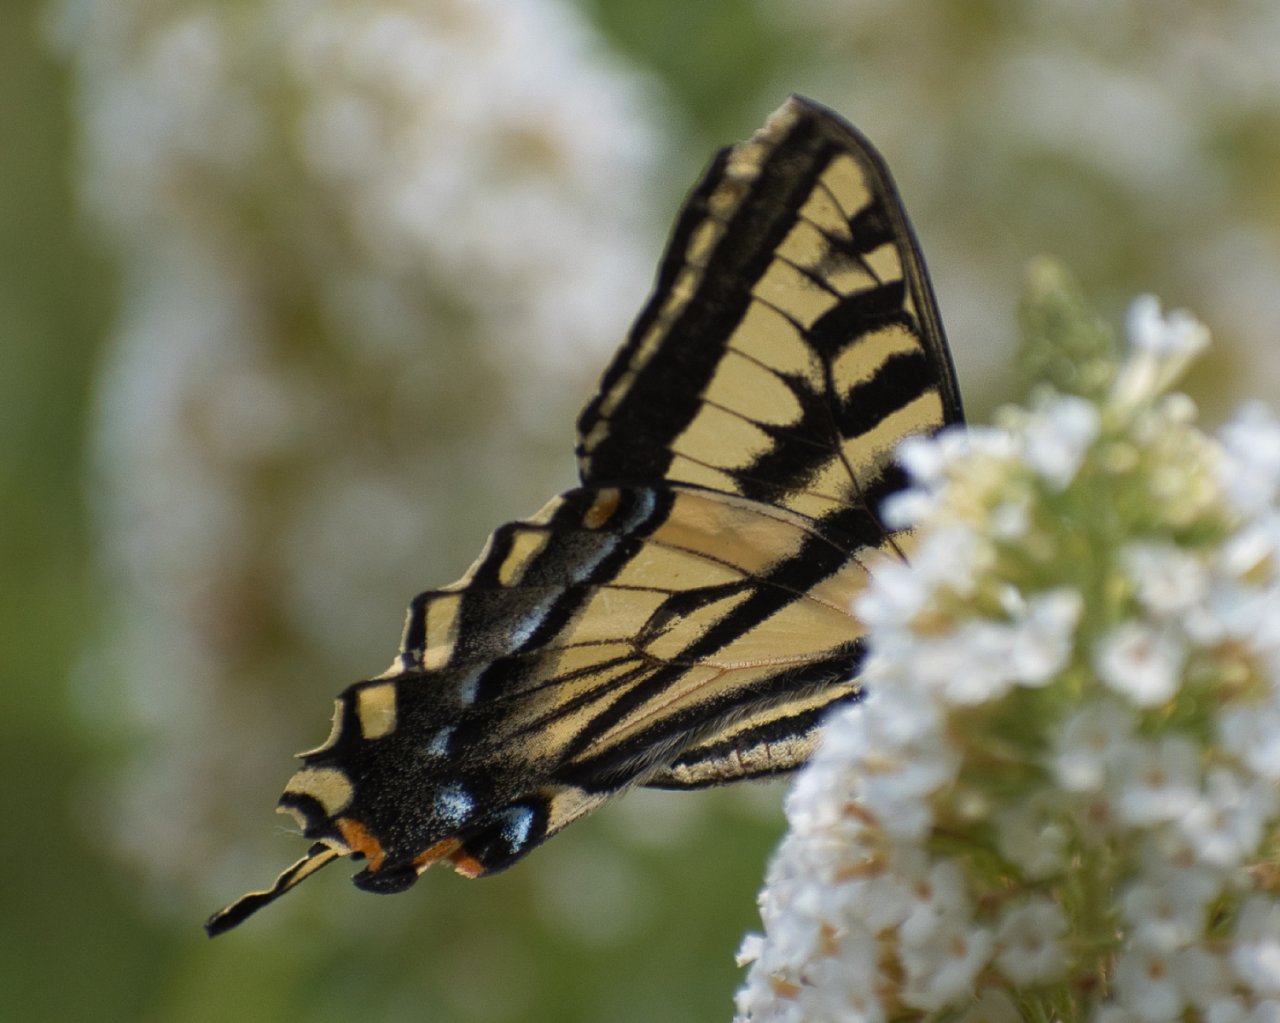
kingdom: Animalia
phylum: Arthropoda
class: Insecta
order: Lepidoptera
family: Papilionidae
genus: Pterourus
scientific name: Pterourus rutulus
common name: Western Tiger Swallowtail
